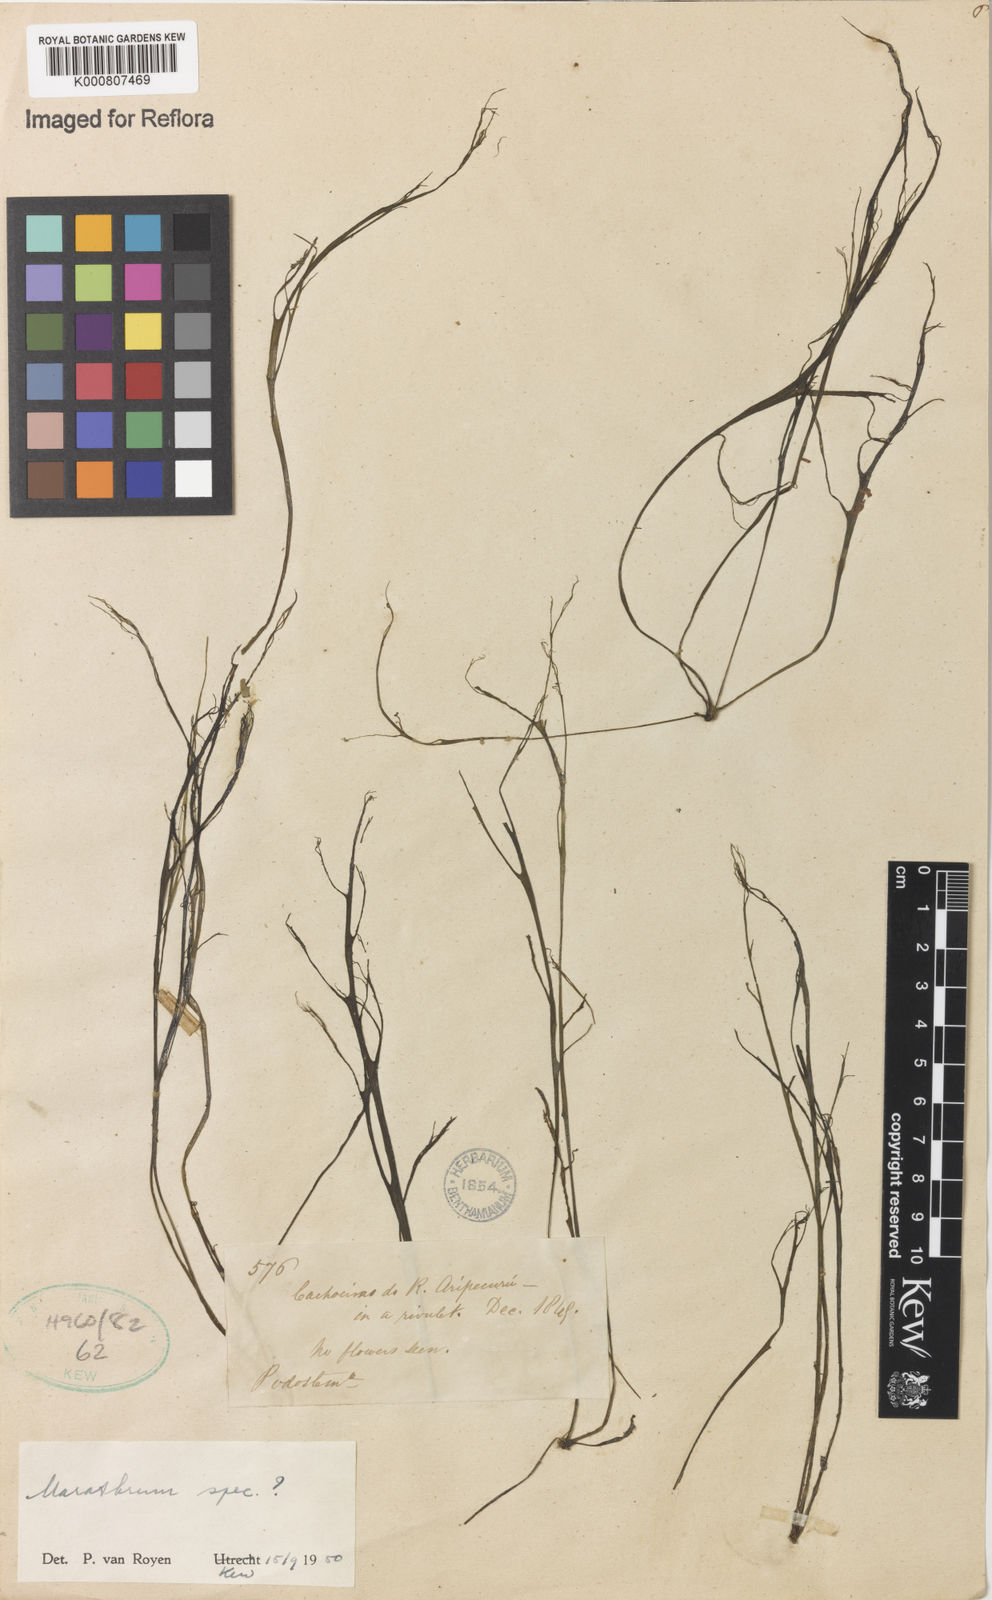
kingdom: Plantae
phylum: Tracheophyta
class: Magnoliopsida
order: Malpighiales
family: Podostemaceae
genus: Marathrum
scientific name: Marathrum
